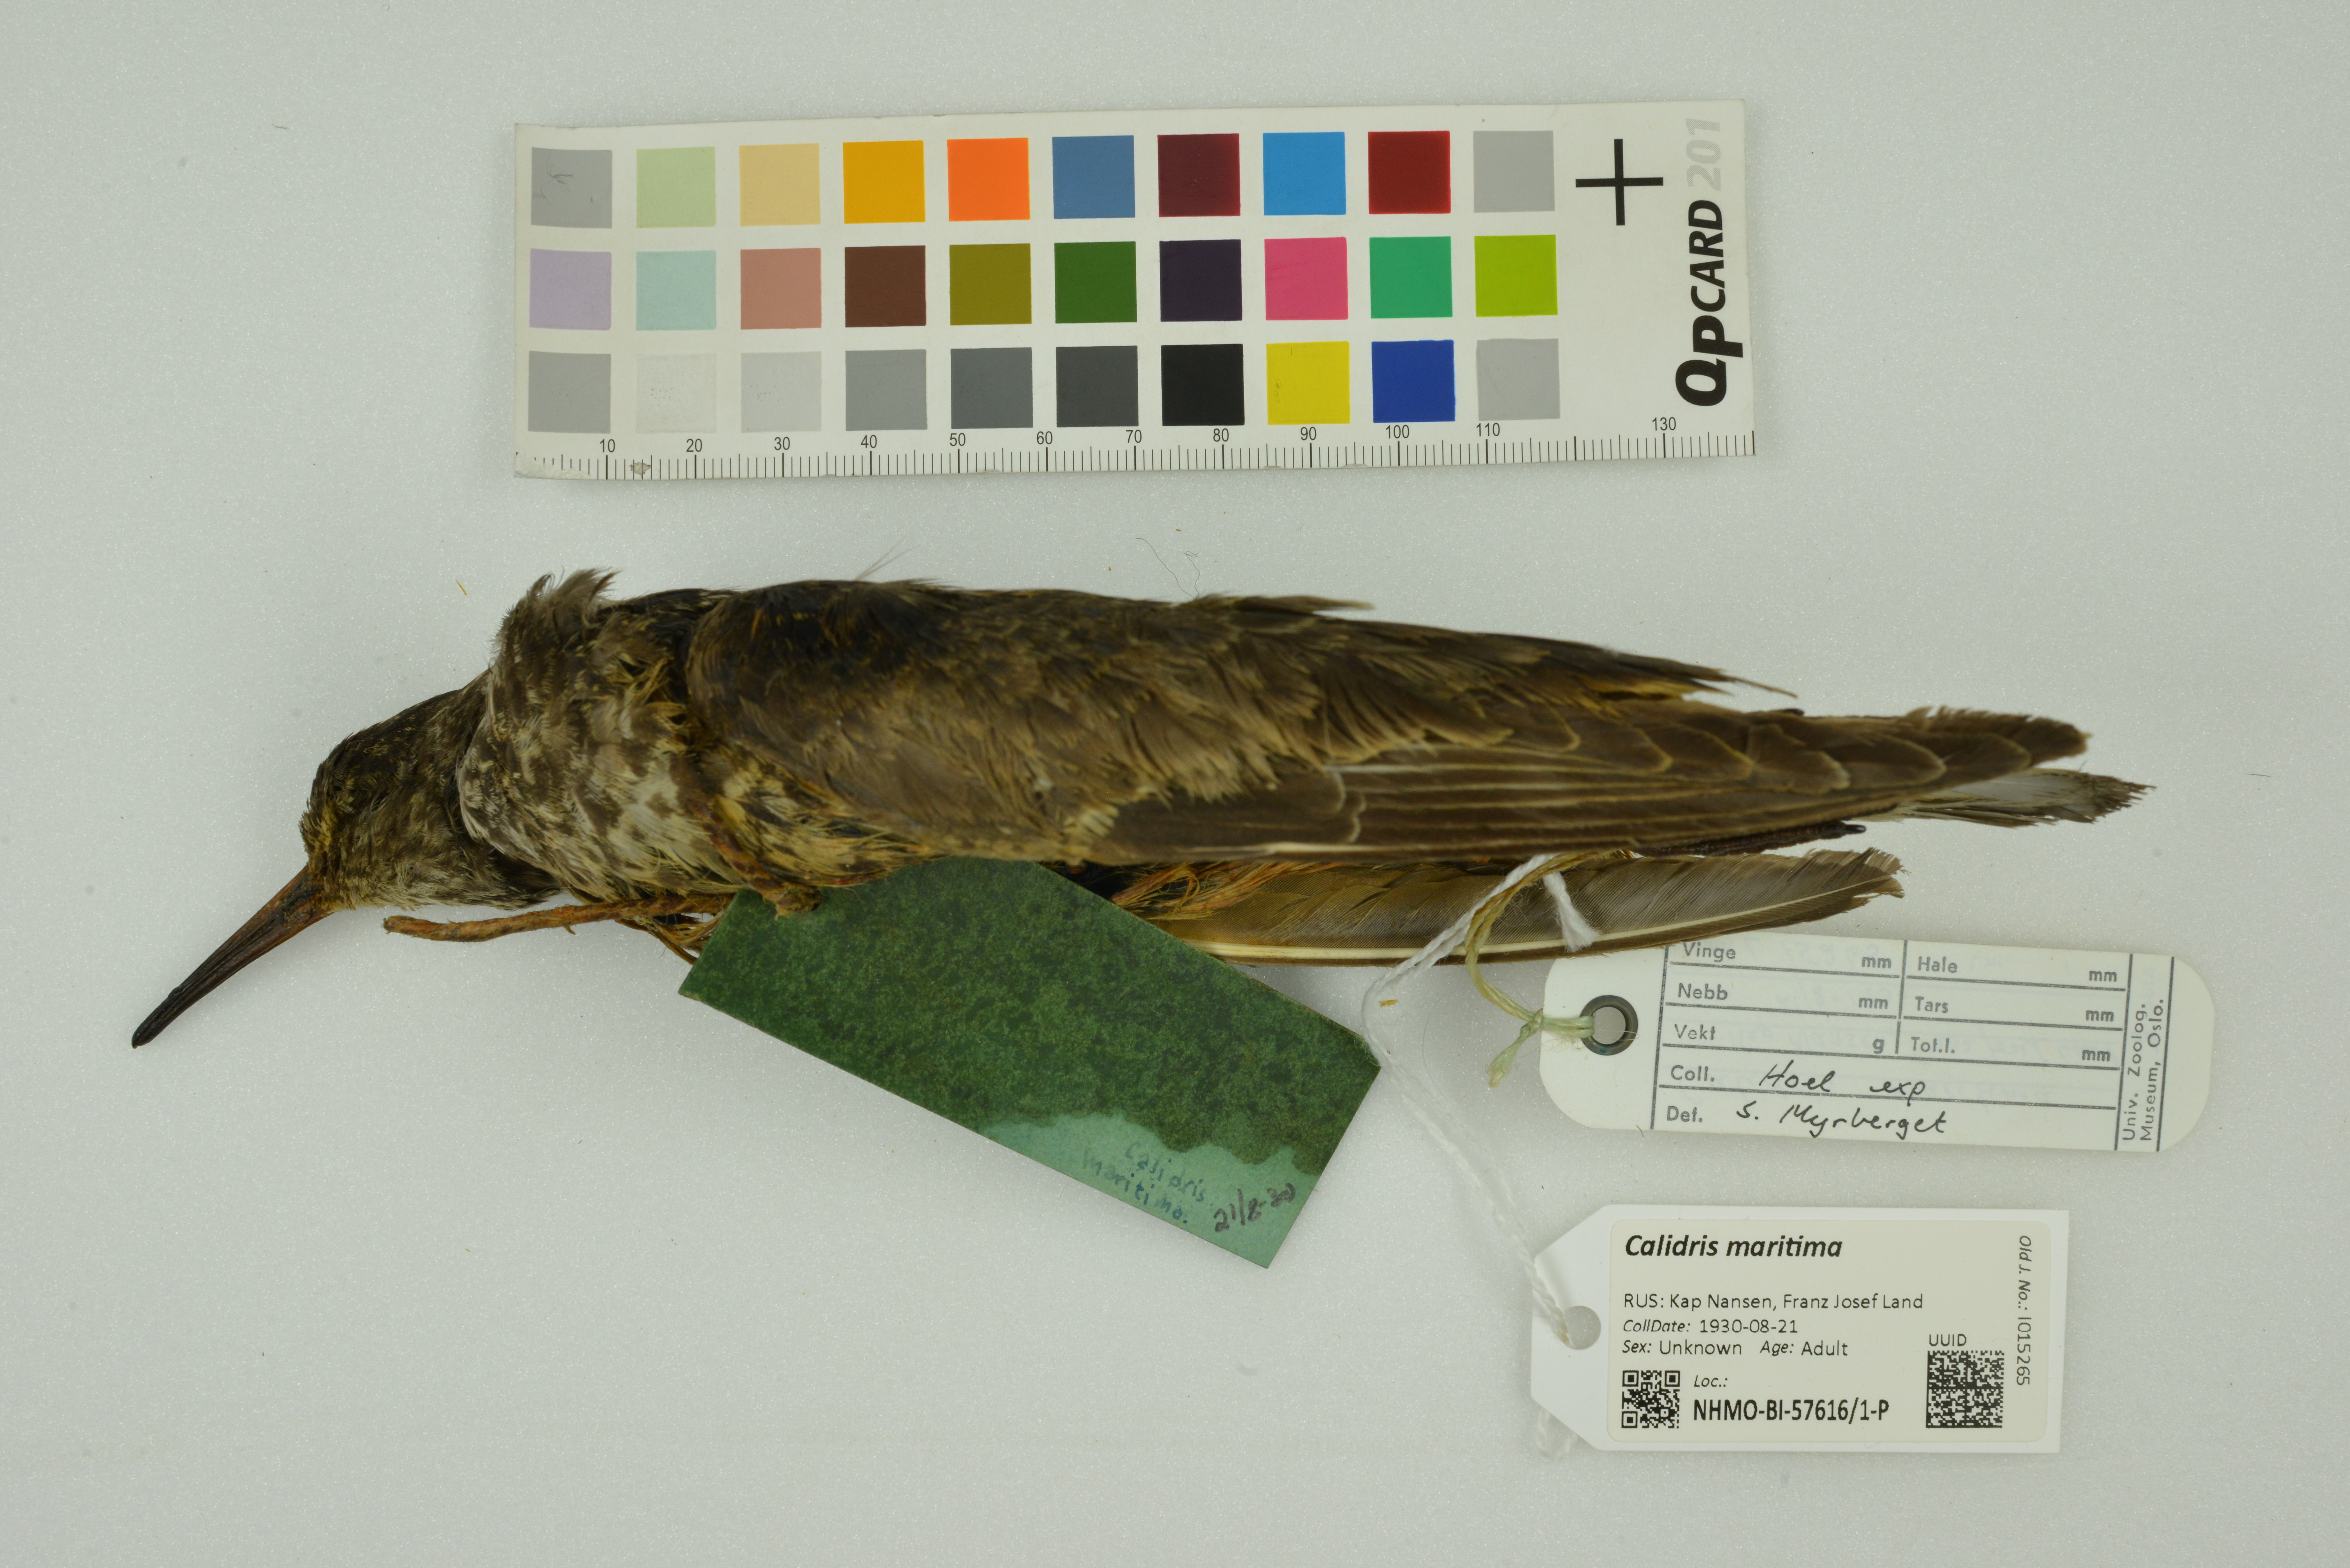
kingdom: Animalia
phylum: Chordata
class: Aves
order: Charadriiformes
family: Scolopacidae
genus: Calidris
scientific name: Calidris maritima
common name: Purple sandpiper
